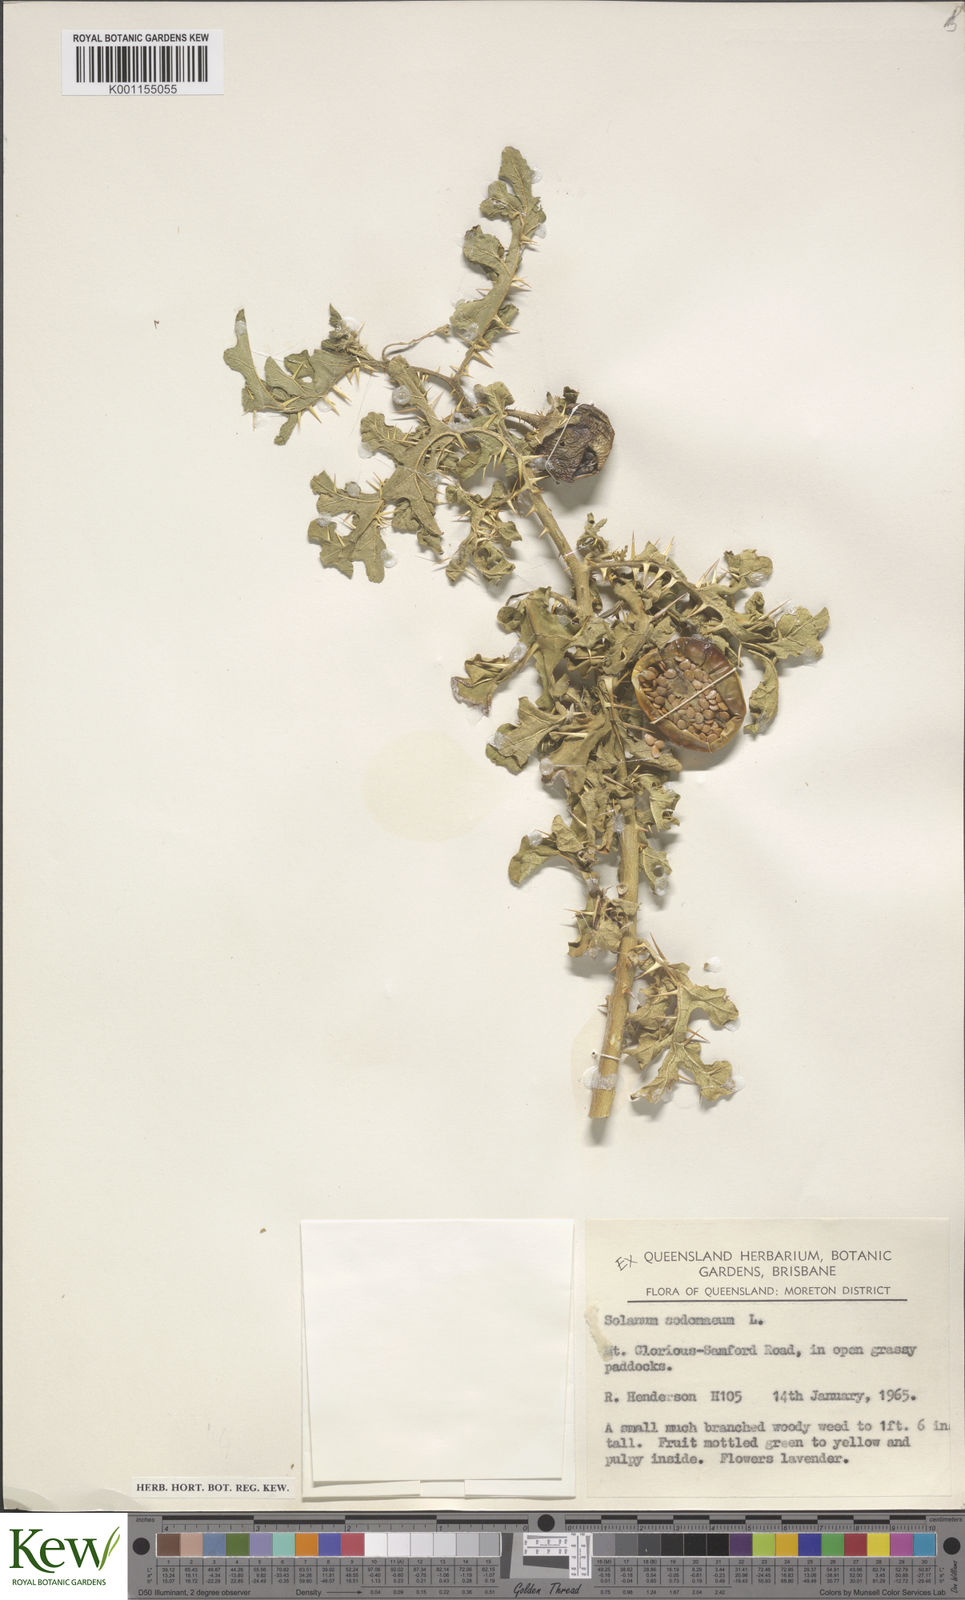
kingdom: Plantae
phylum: Tracheophyta
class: Magnoliopsida
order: Solanales
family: Solanaceae
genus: Solanum
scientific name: Solanum anguivi
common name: Forest bitterberry
